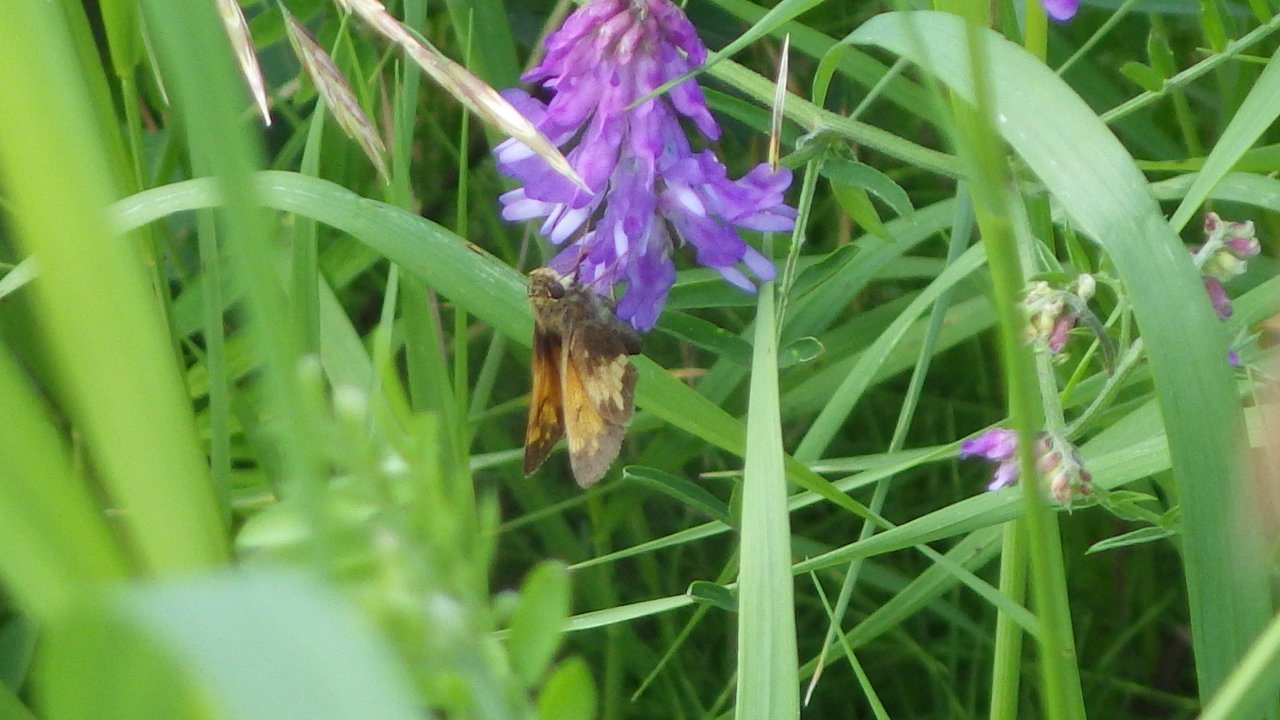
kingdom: Animalia
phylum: Arthropoda
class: Insecta
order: Lepidoptera
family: Hesperiidae
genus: Lon
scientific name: Lon hobomok
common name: Hobomok Skipper
